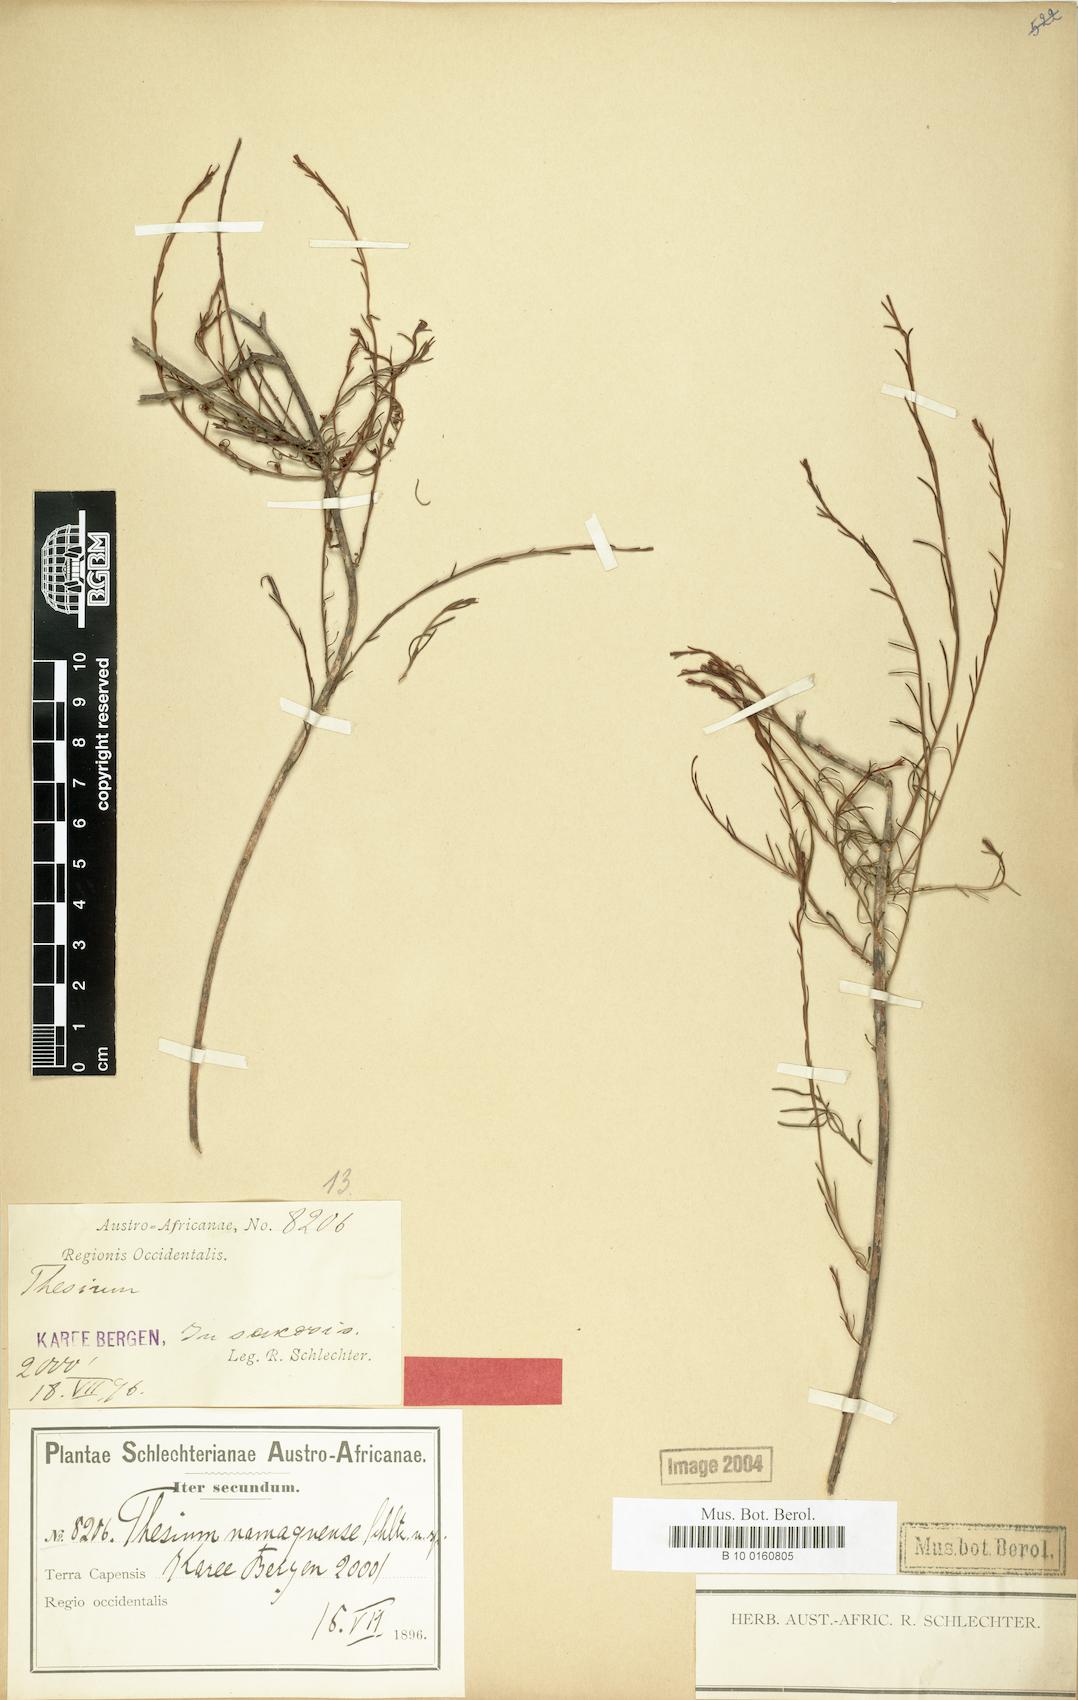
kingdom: Plantae
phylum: Tracheophyta
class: Magnoliopsida
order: Santalales
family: Thesiaceae
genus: Thesium
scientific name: Thesium namaquense
